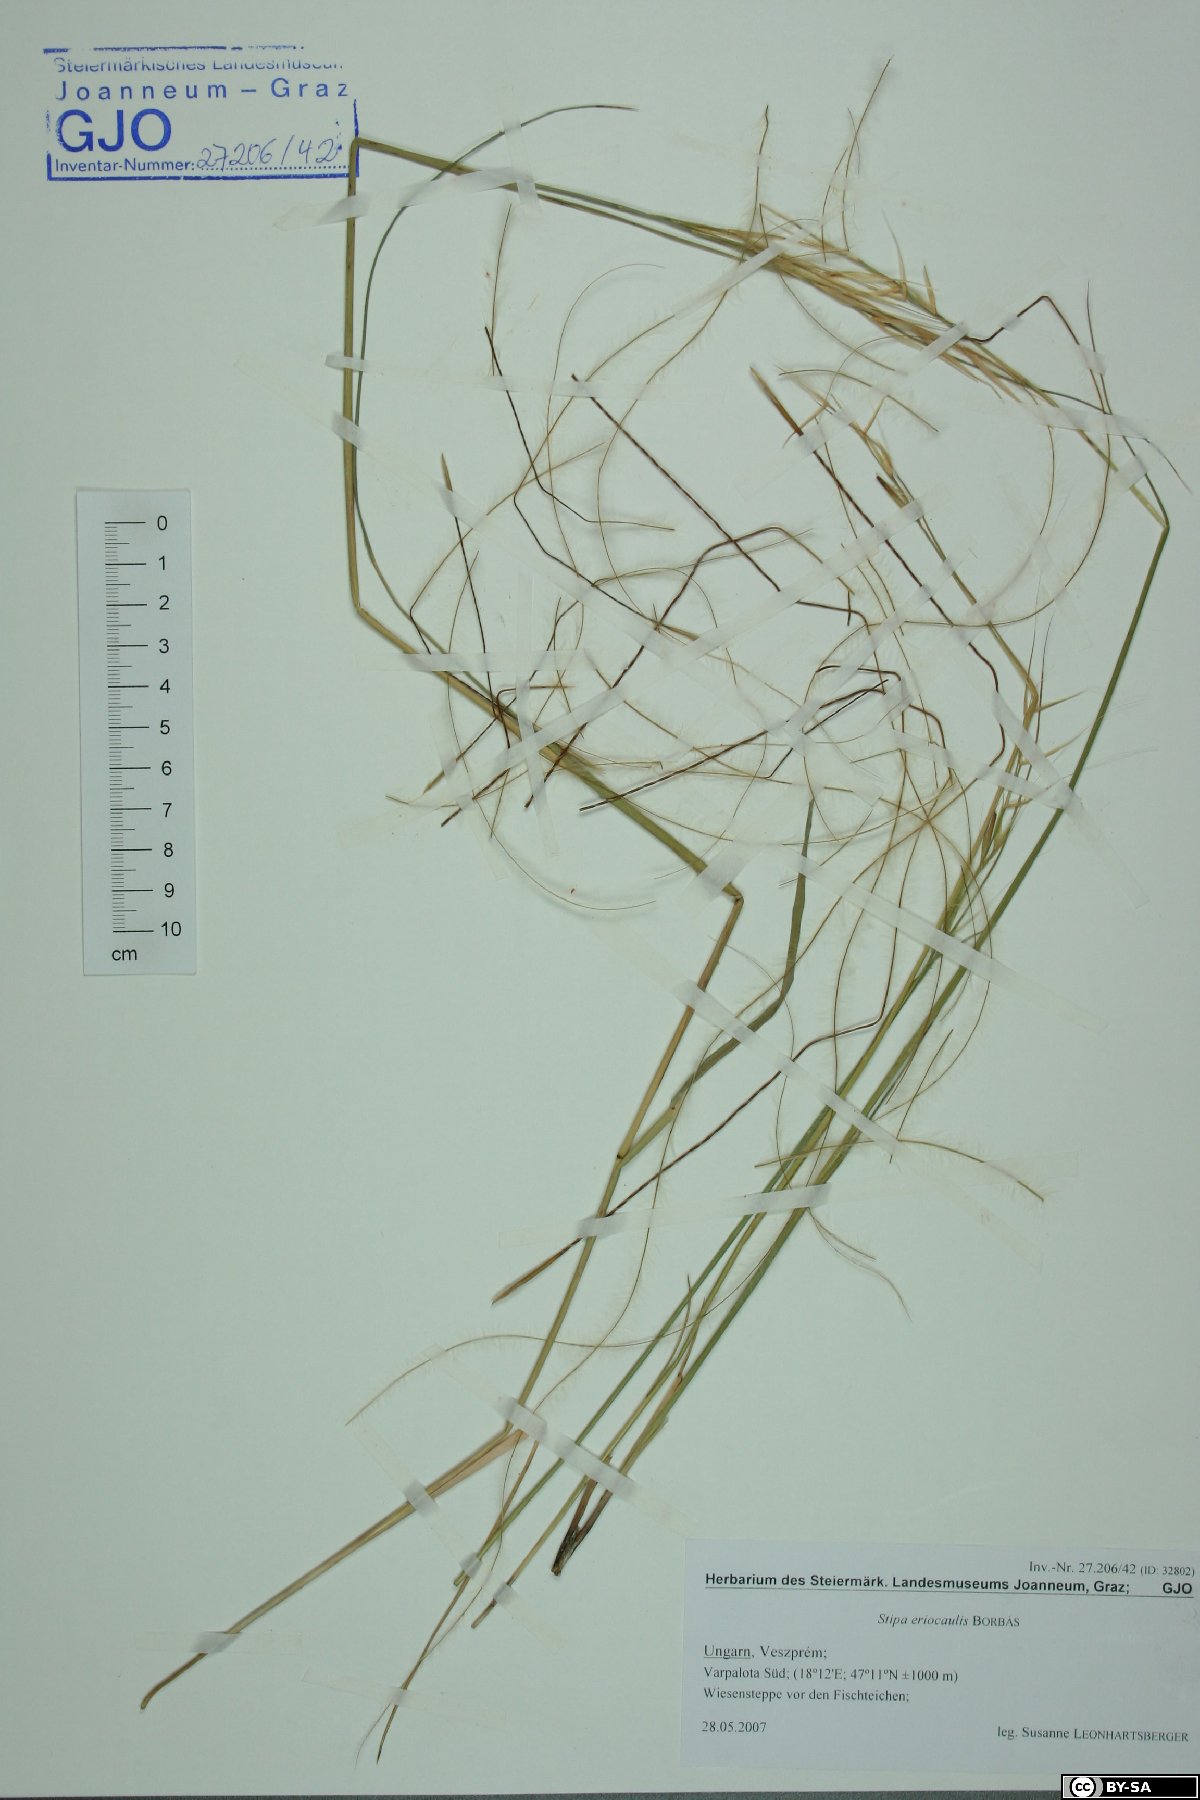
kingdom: Plantae
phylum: Tracheophyta
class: Liliopsida
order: Poales
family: Poaceae
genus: Stipa
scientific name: Stipa pennata
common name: European feather grass
